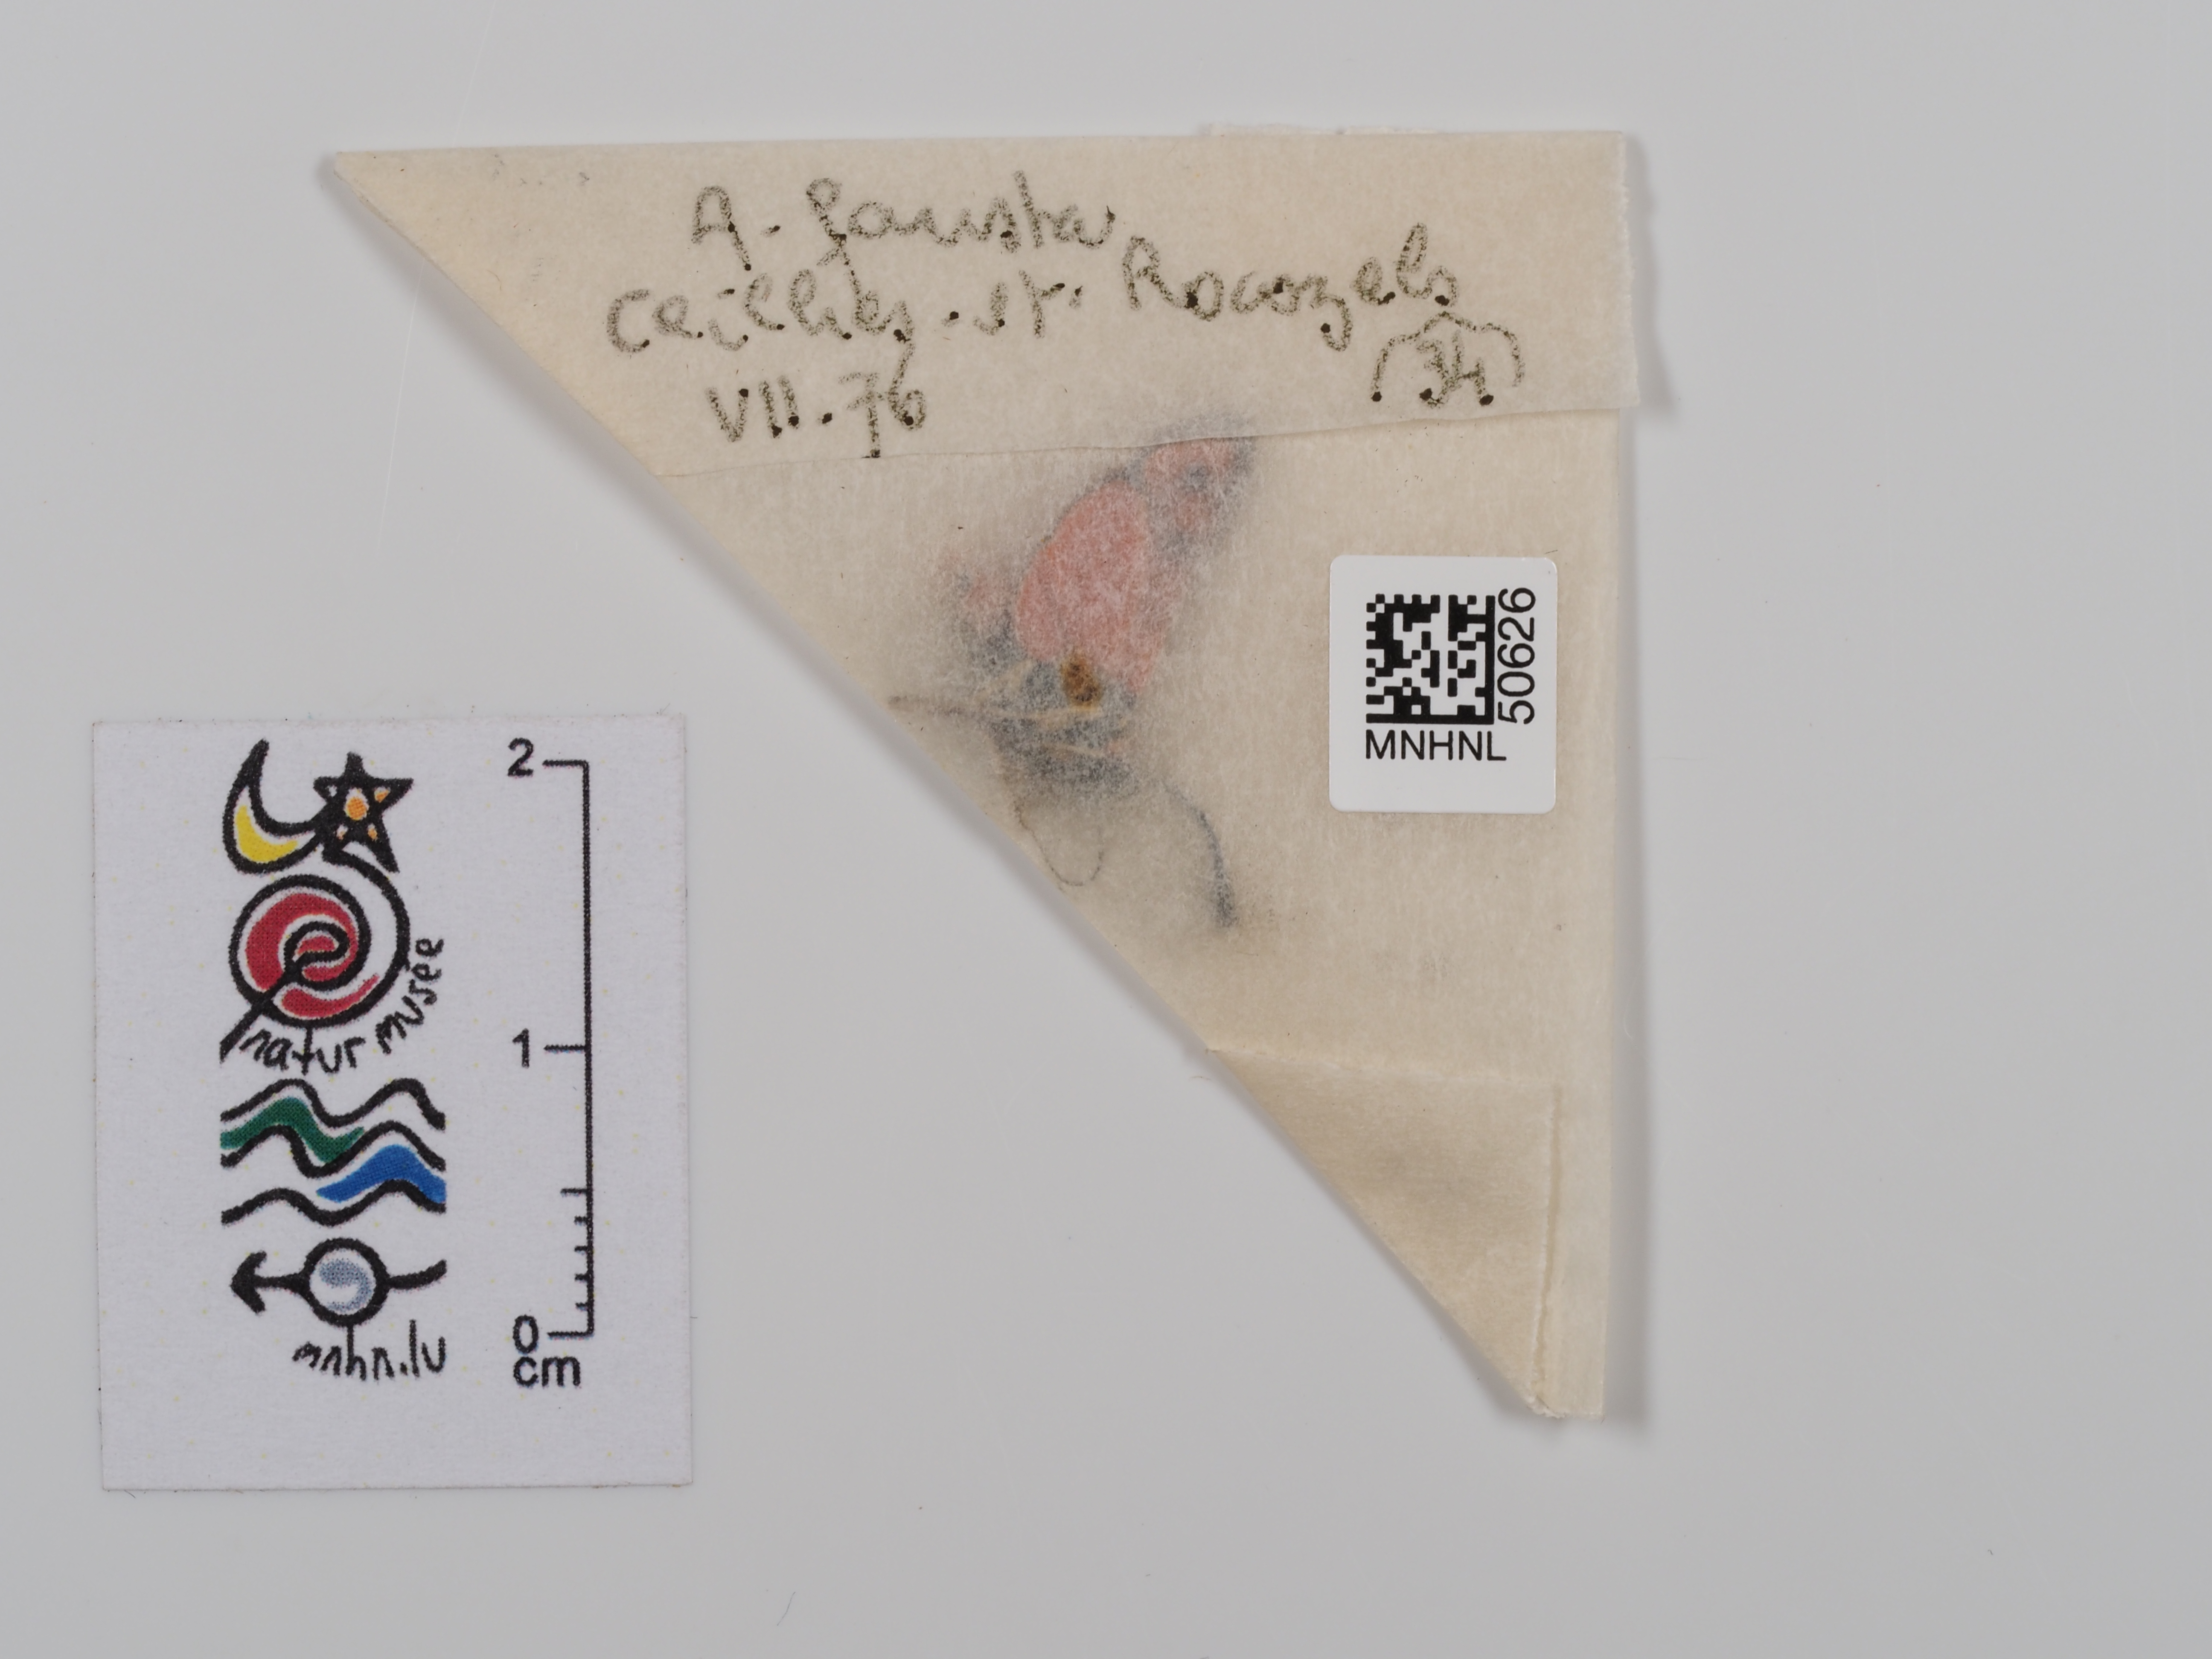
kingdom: Animalia
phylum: Arthropoda
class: Insecta
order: Lepidoptera
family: Zygaenidae
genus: Zygaena
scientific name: Zygaena fausta
